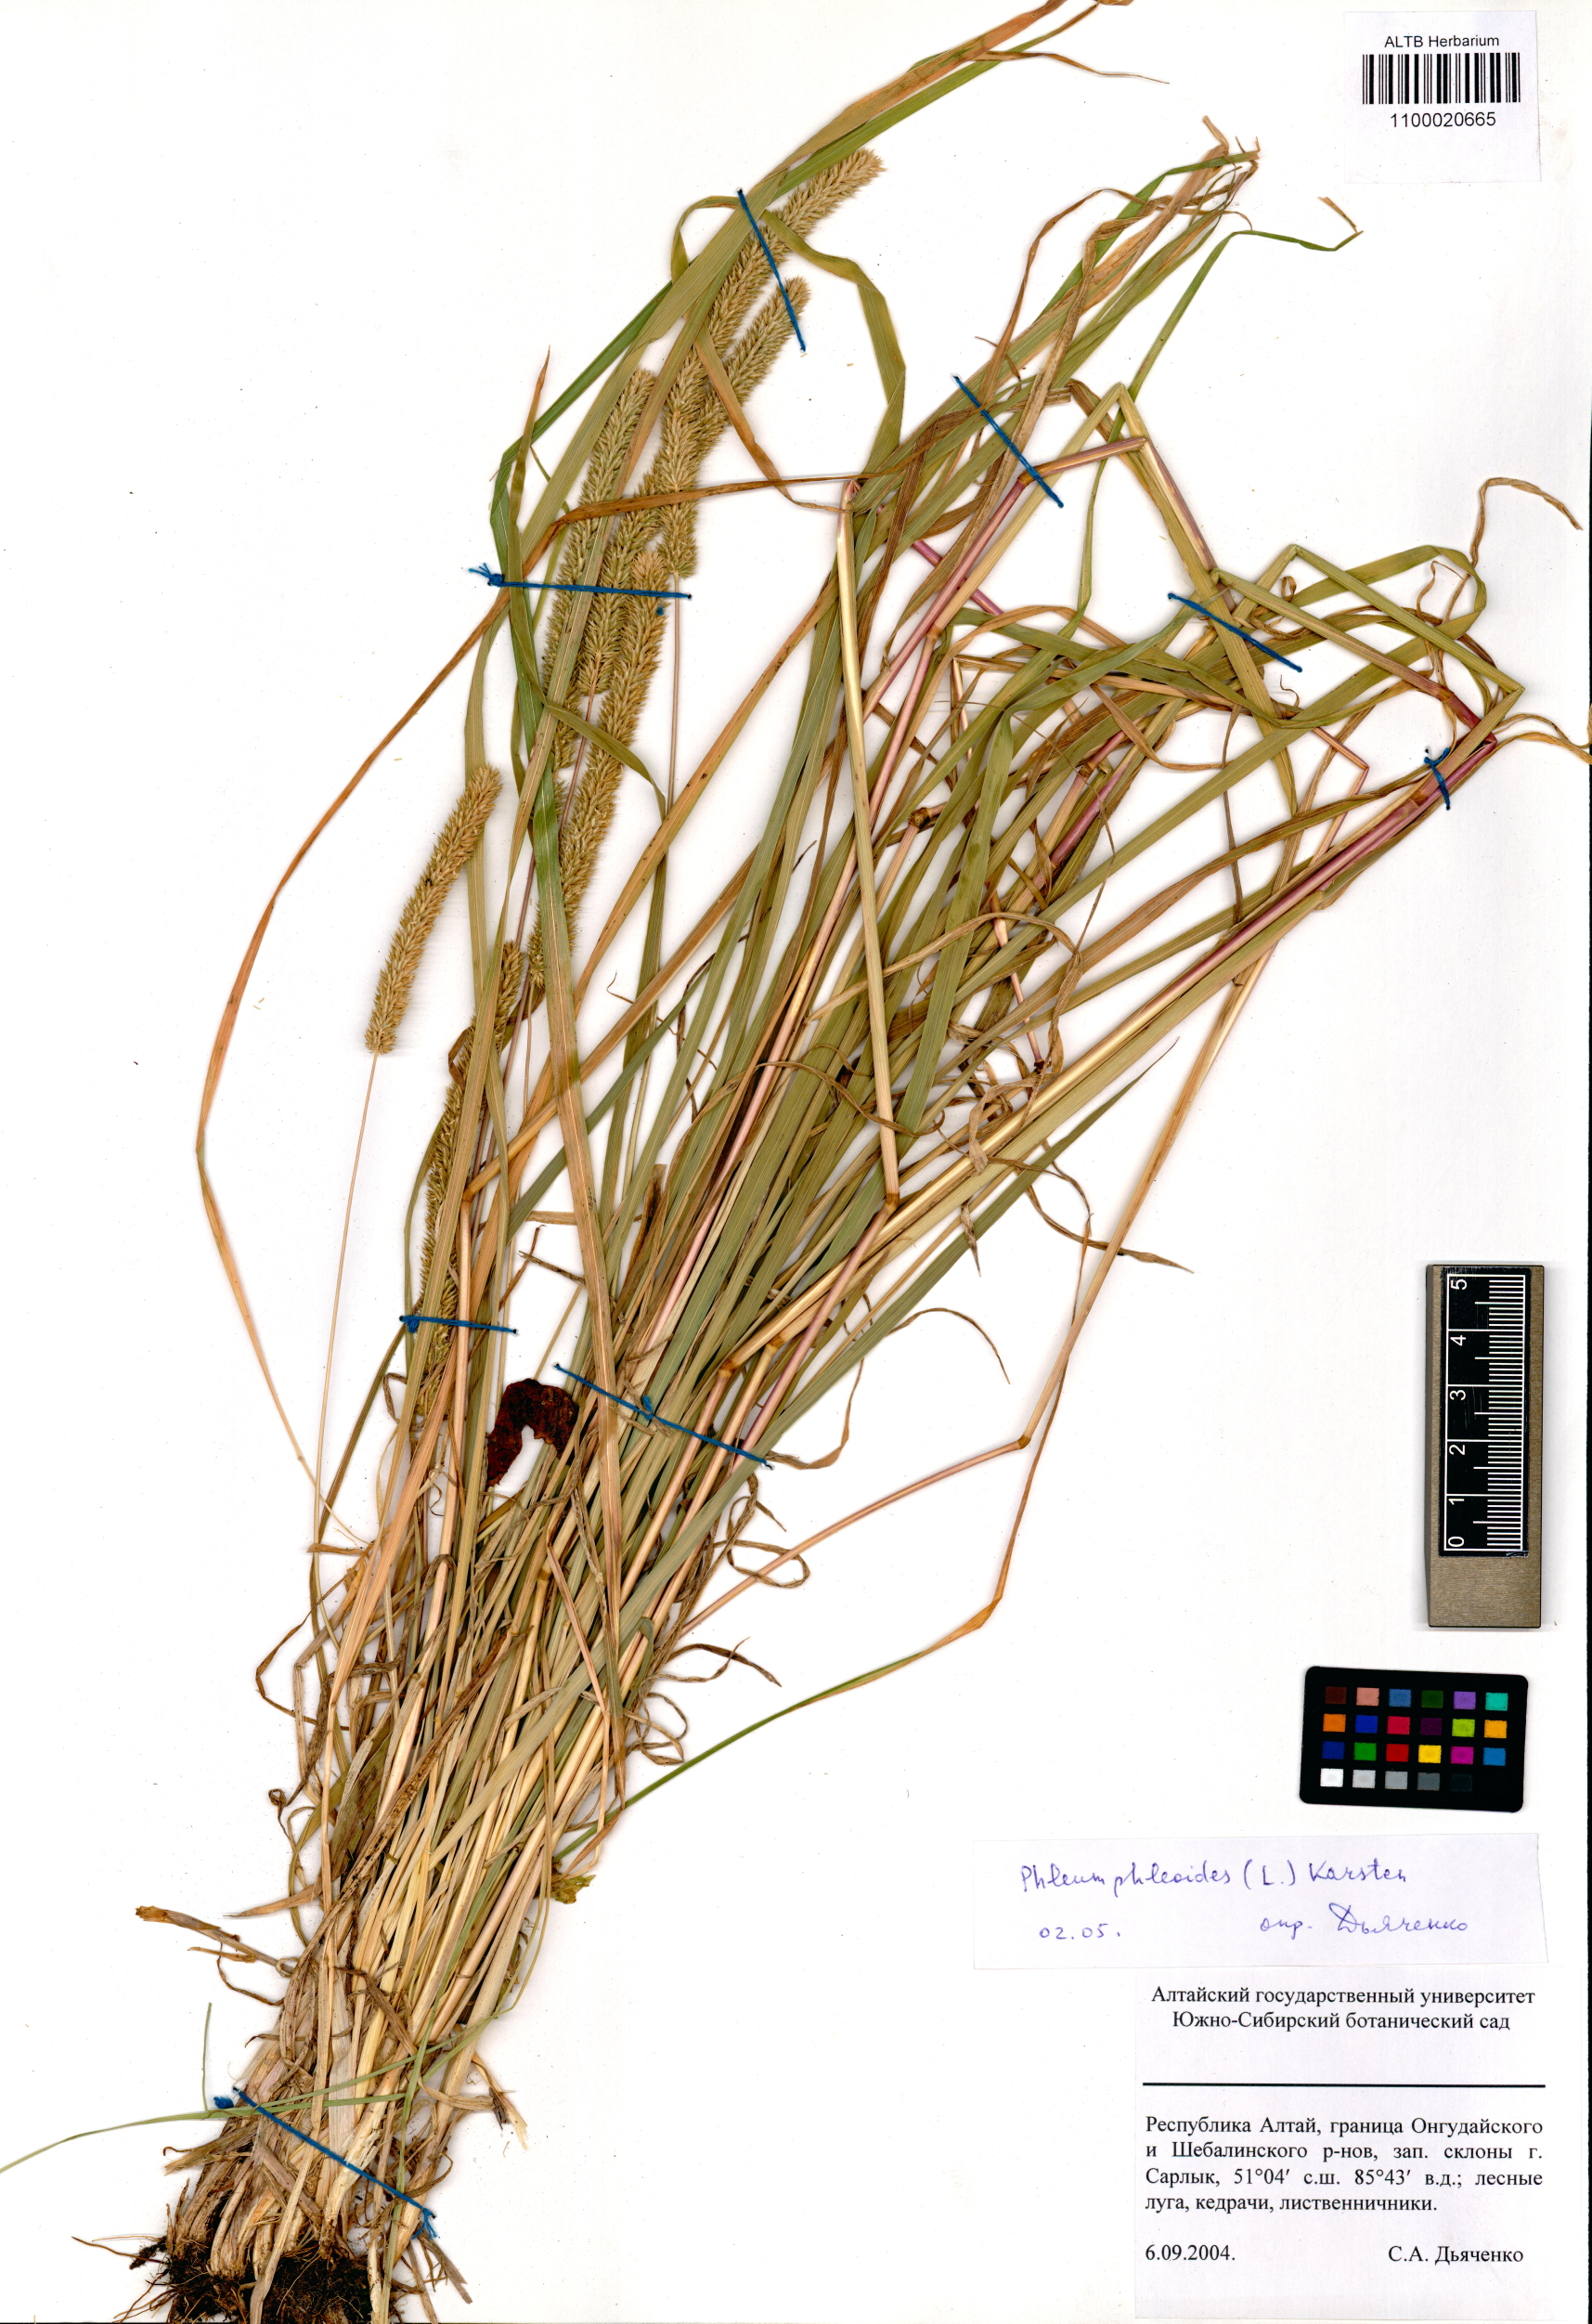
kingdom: Plantae
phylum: Tracheophyta
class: Liliopsida
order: Poales
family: Poaceae
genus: Phleum
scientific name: Phleum phleoides
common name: Purple-stem cat's-tail
